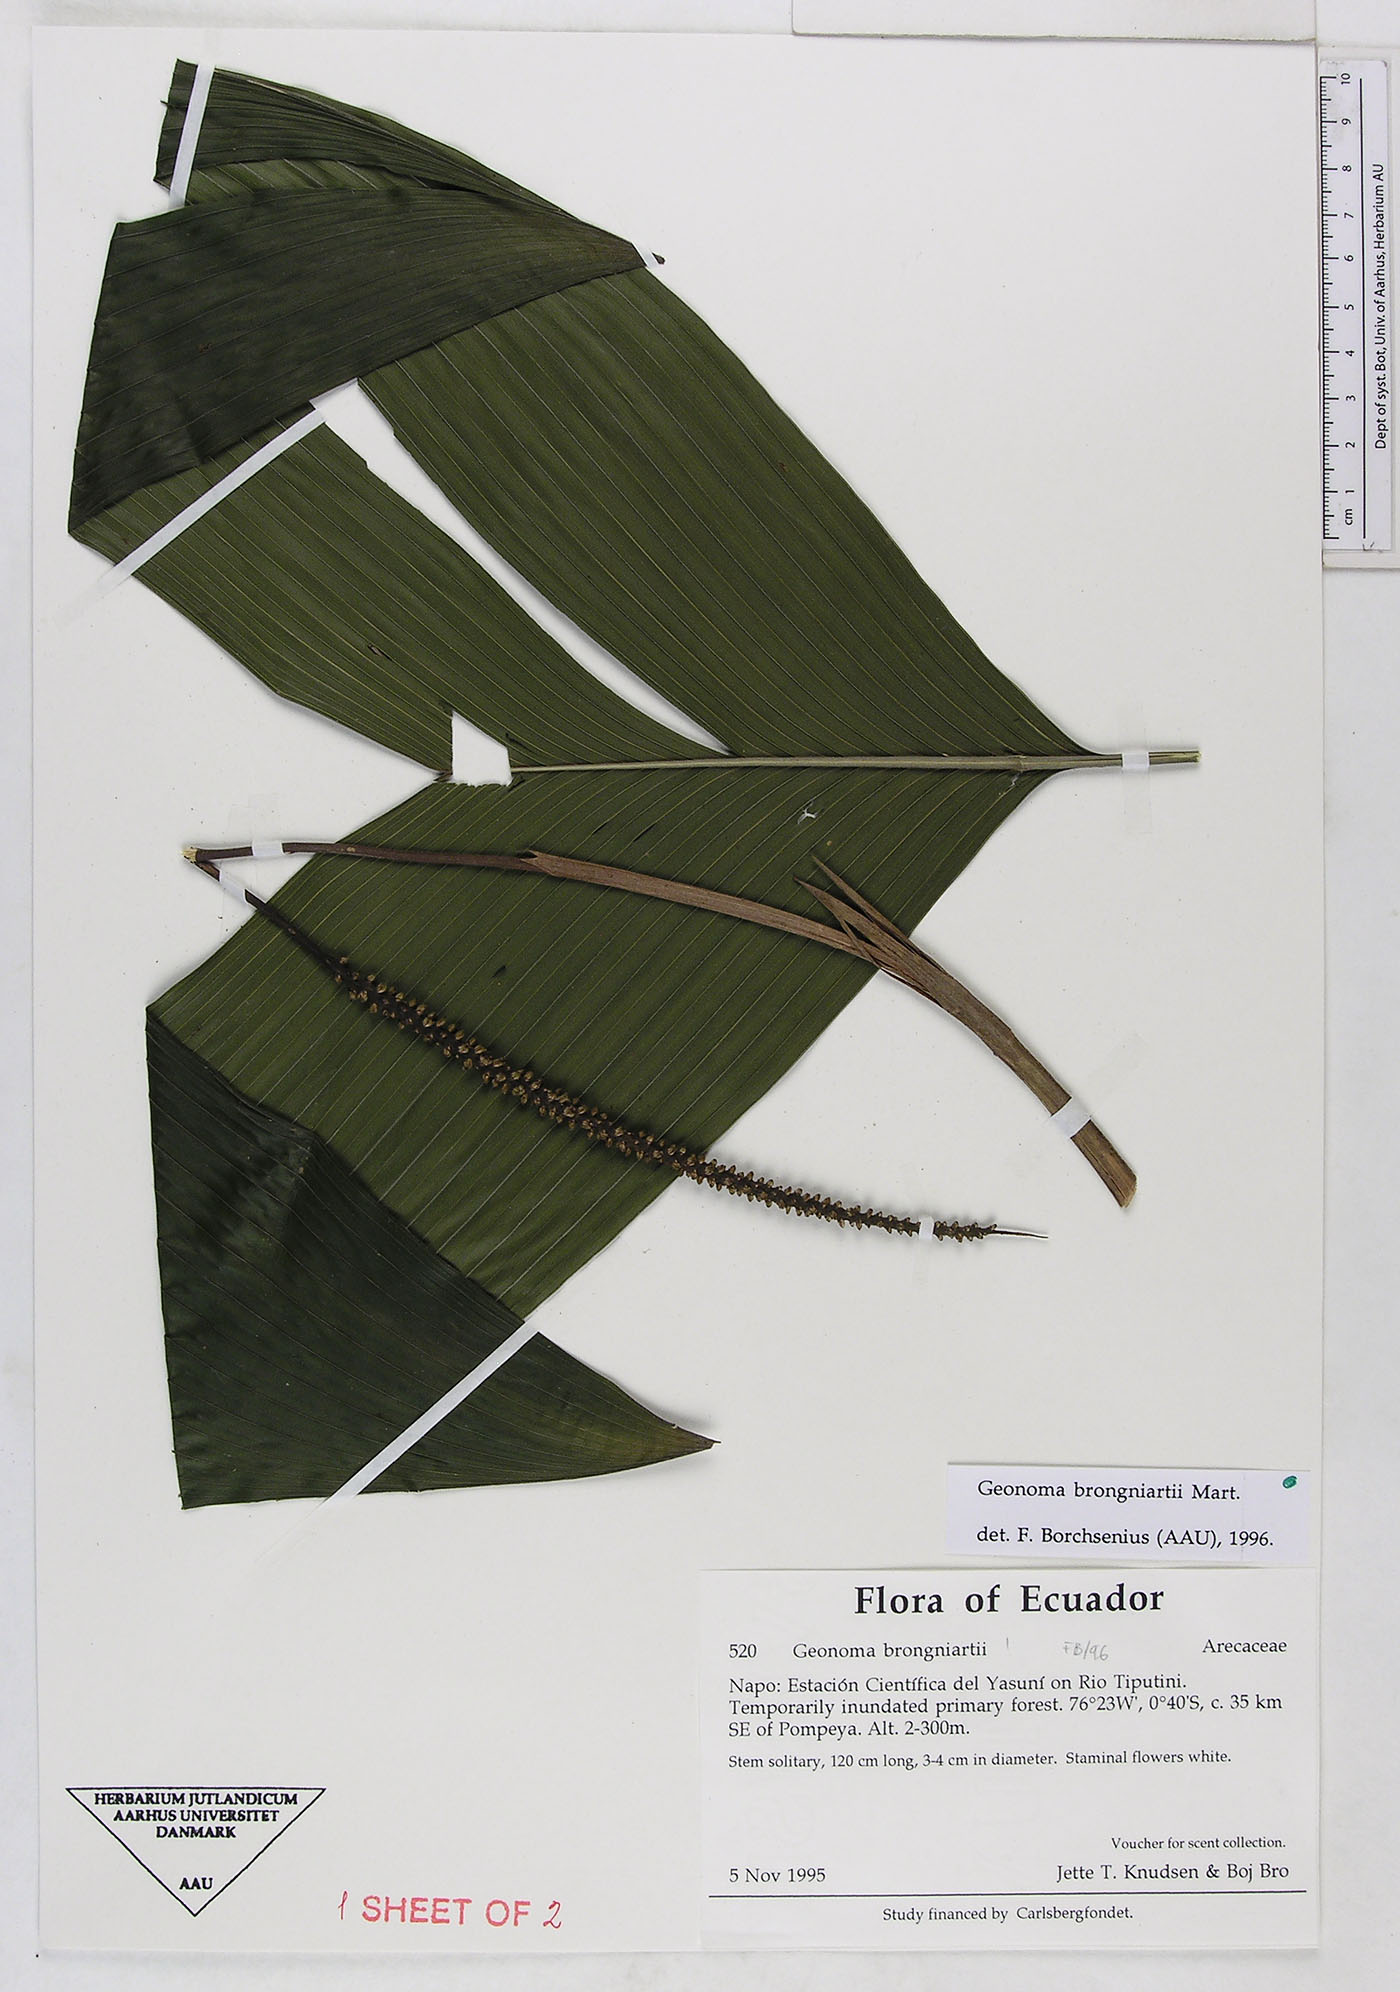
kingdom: Plantae
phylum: Tracheophyta
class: Liliopsida
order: Arecales
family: Arecaceae
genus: Geonoma
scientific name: Geonoma brongniartii
